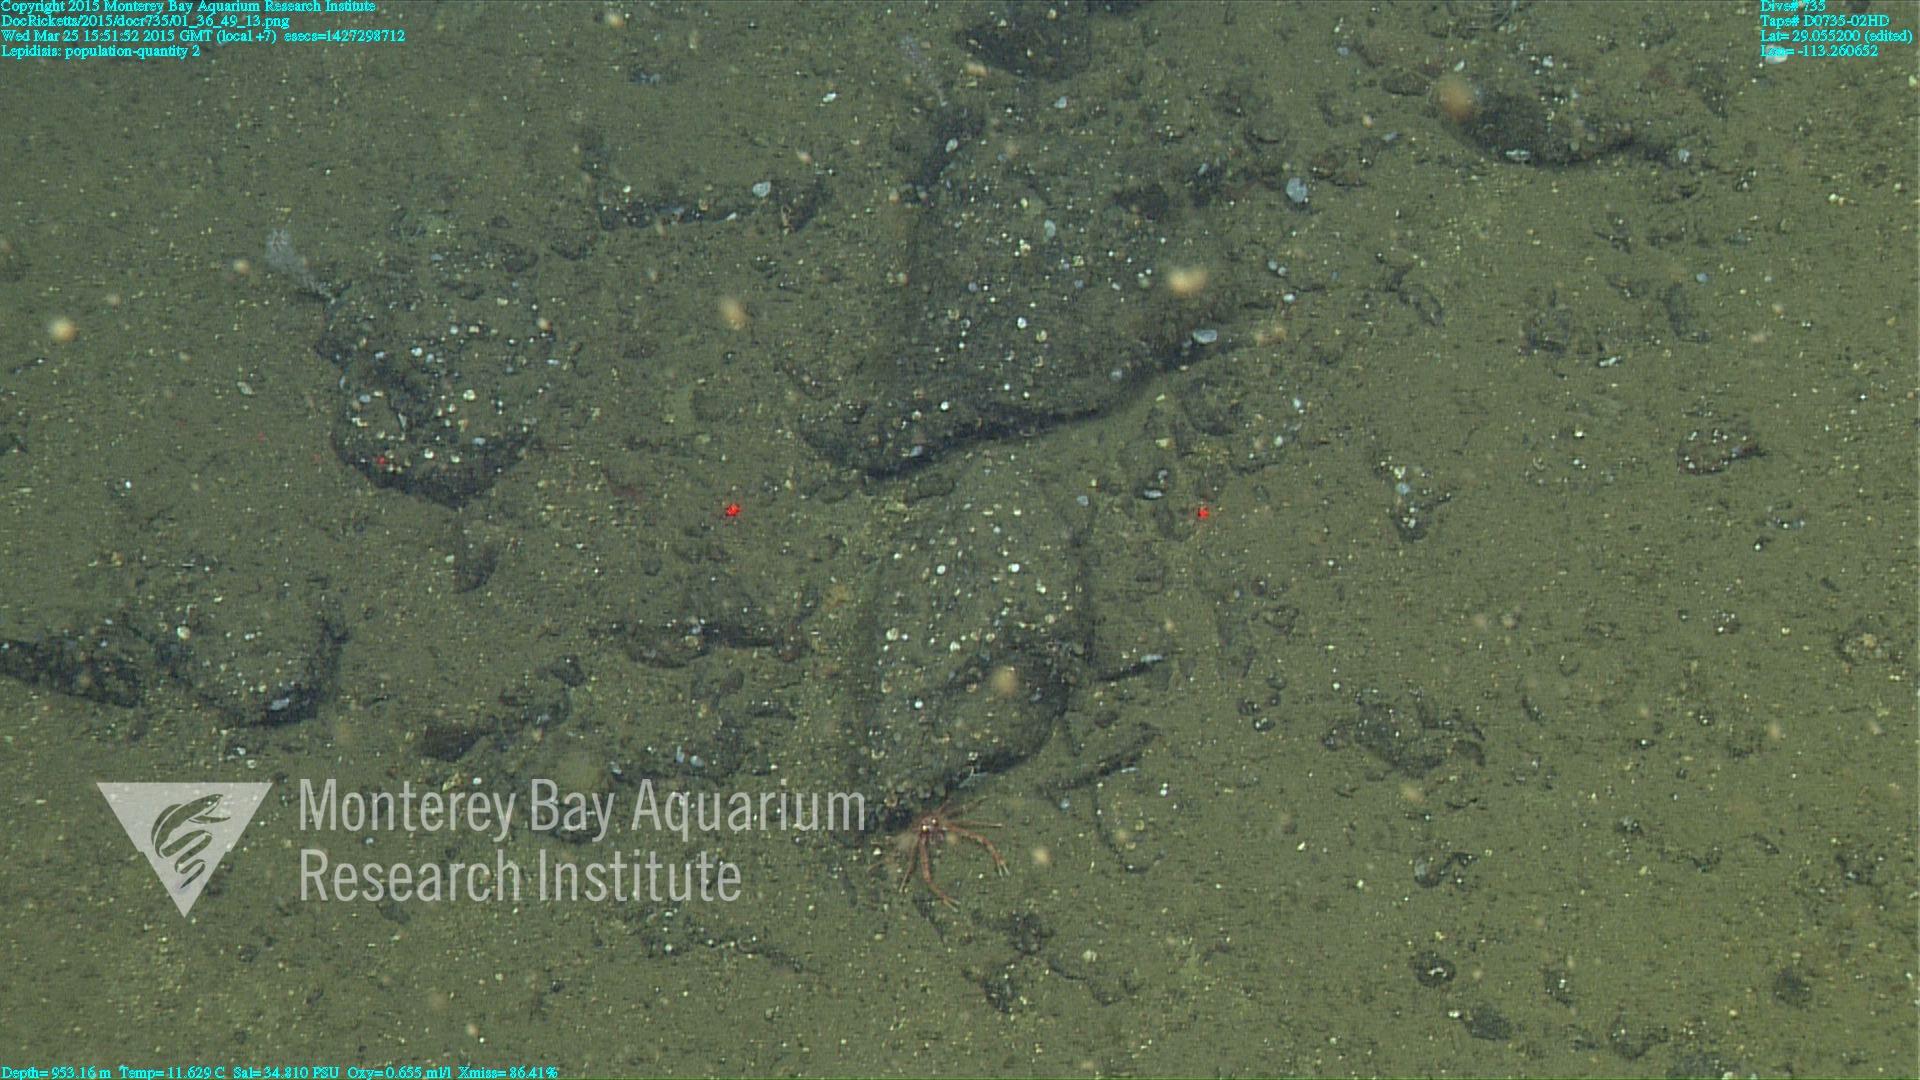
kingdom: Animalia
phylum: Cnidaria
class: Anthozoa
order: Scleralcyonacea
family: Keratoisididae
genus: Lepidisis
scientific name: Lepidisis
